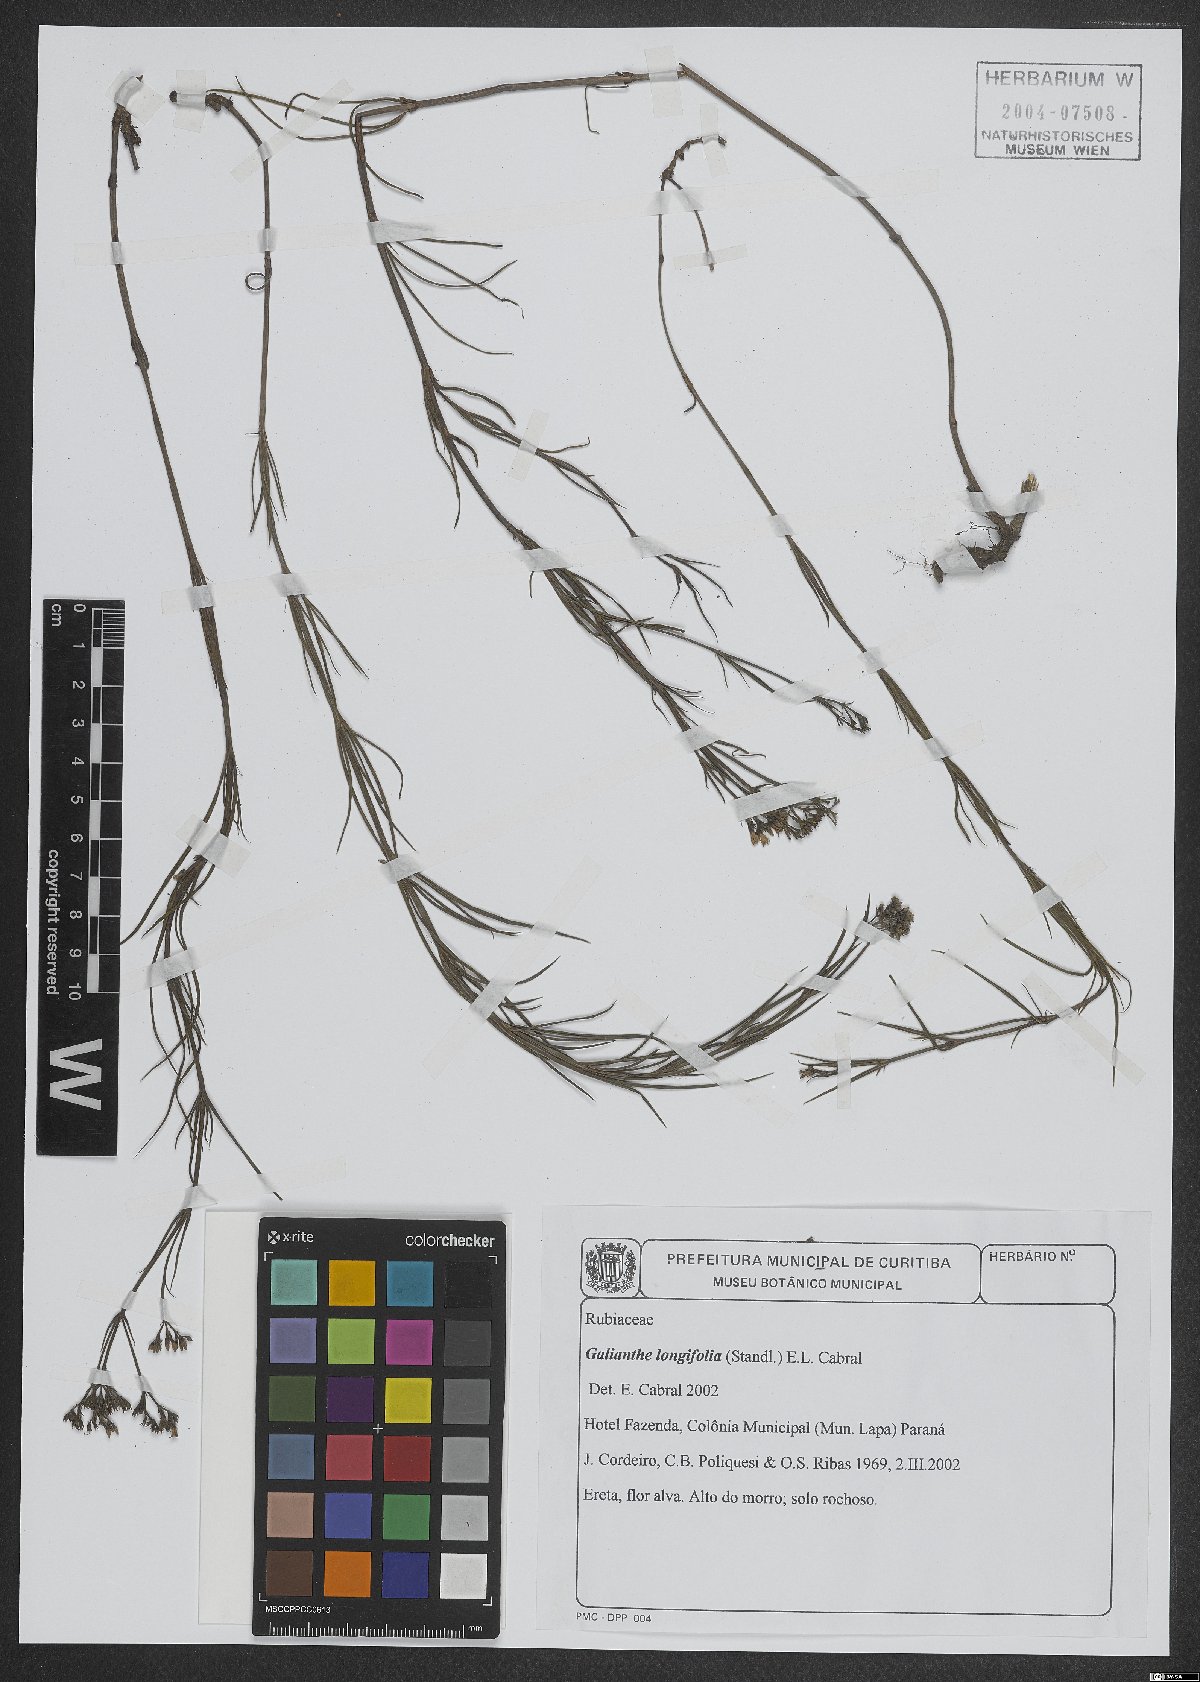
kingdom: Plantae
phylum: Tracheophyta
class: Magnoliopsida
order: Gentianales
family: Rubiaceae
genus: Galianthe
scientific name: Galianthe longifolia
